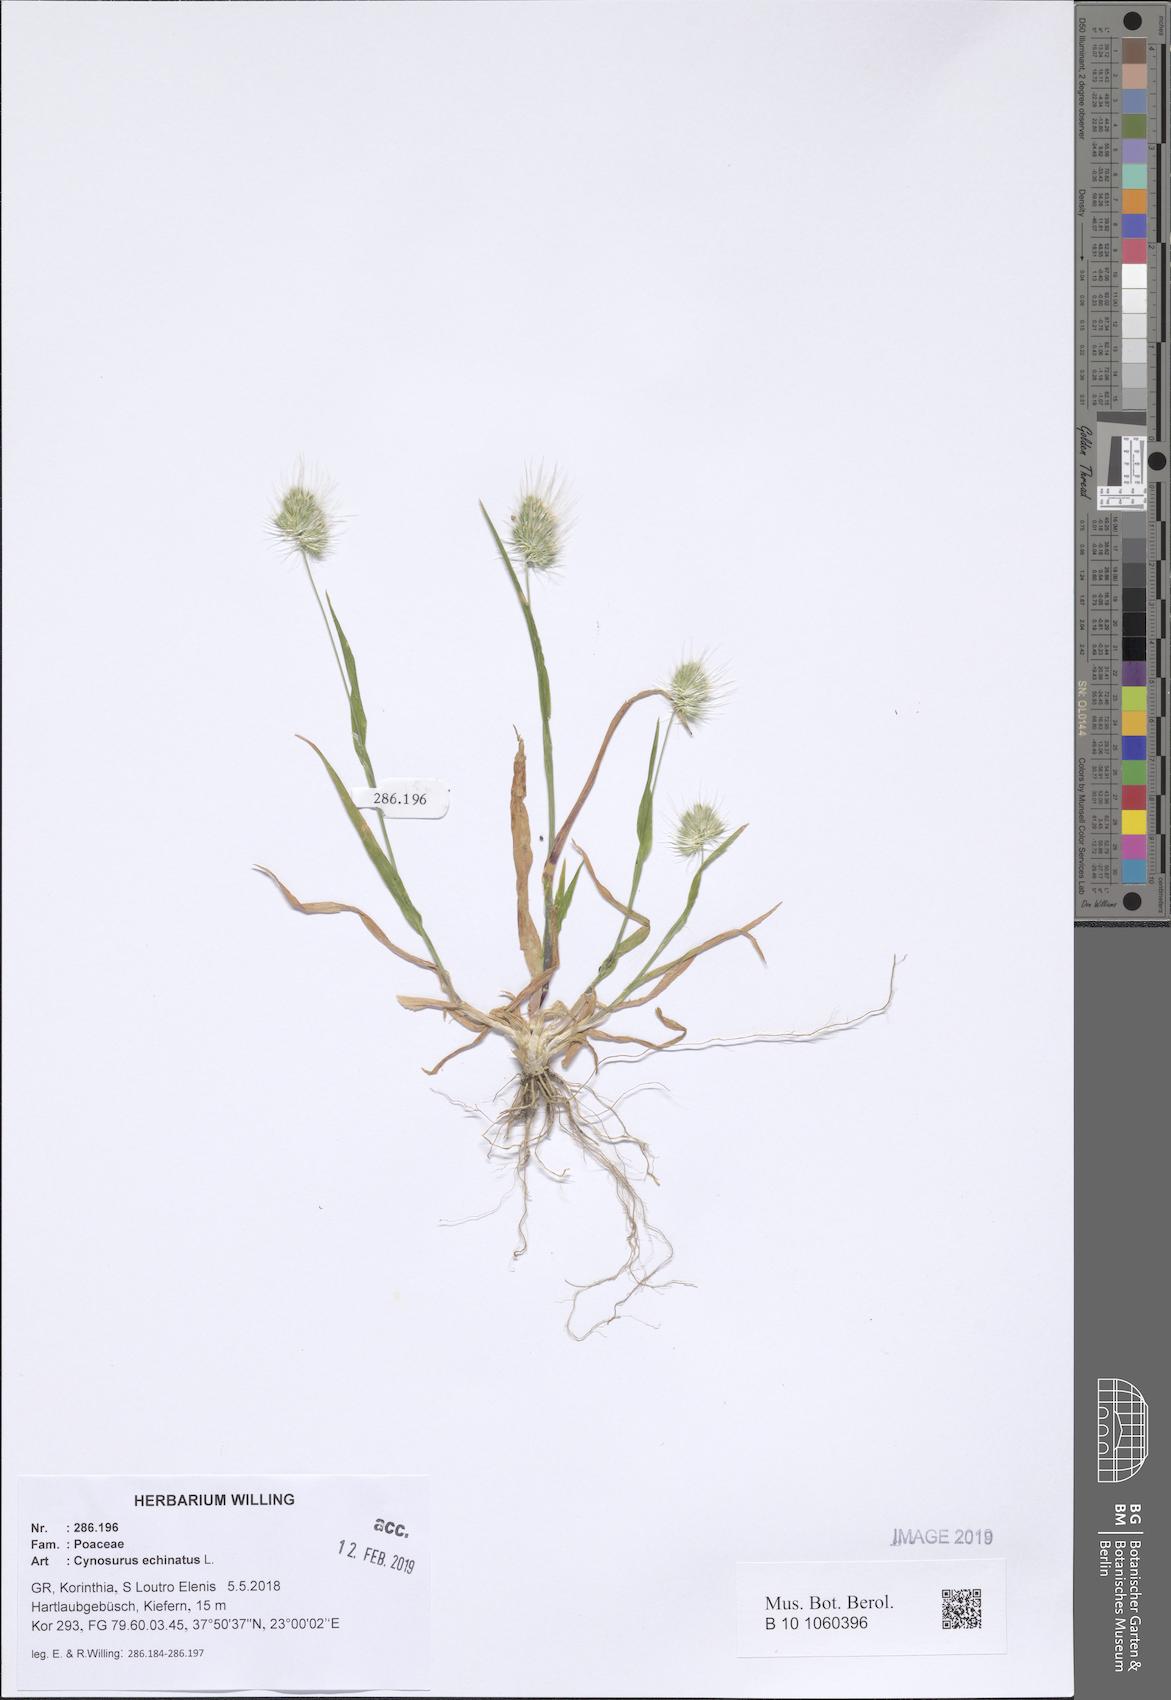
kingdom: Plantae
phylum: Tracheophyta
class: Liliopsida
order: Poales
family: Poaceae
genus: Cynosurus
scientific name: Cynosurus echinatus
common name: Rough dog's-tail
